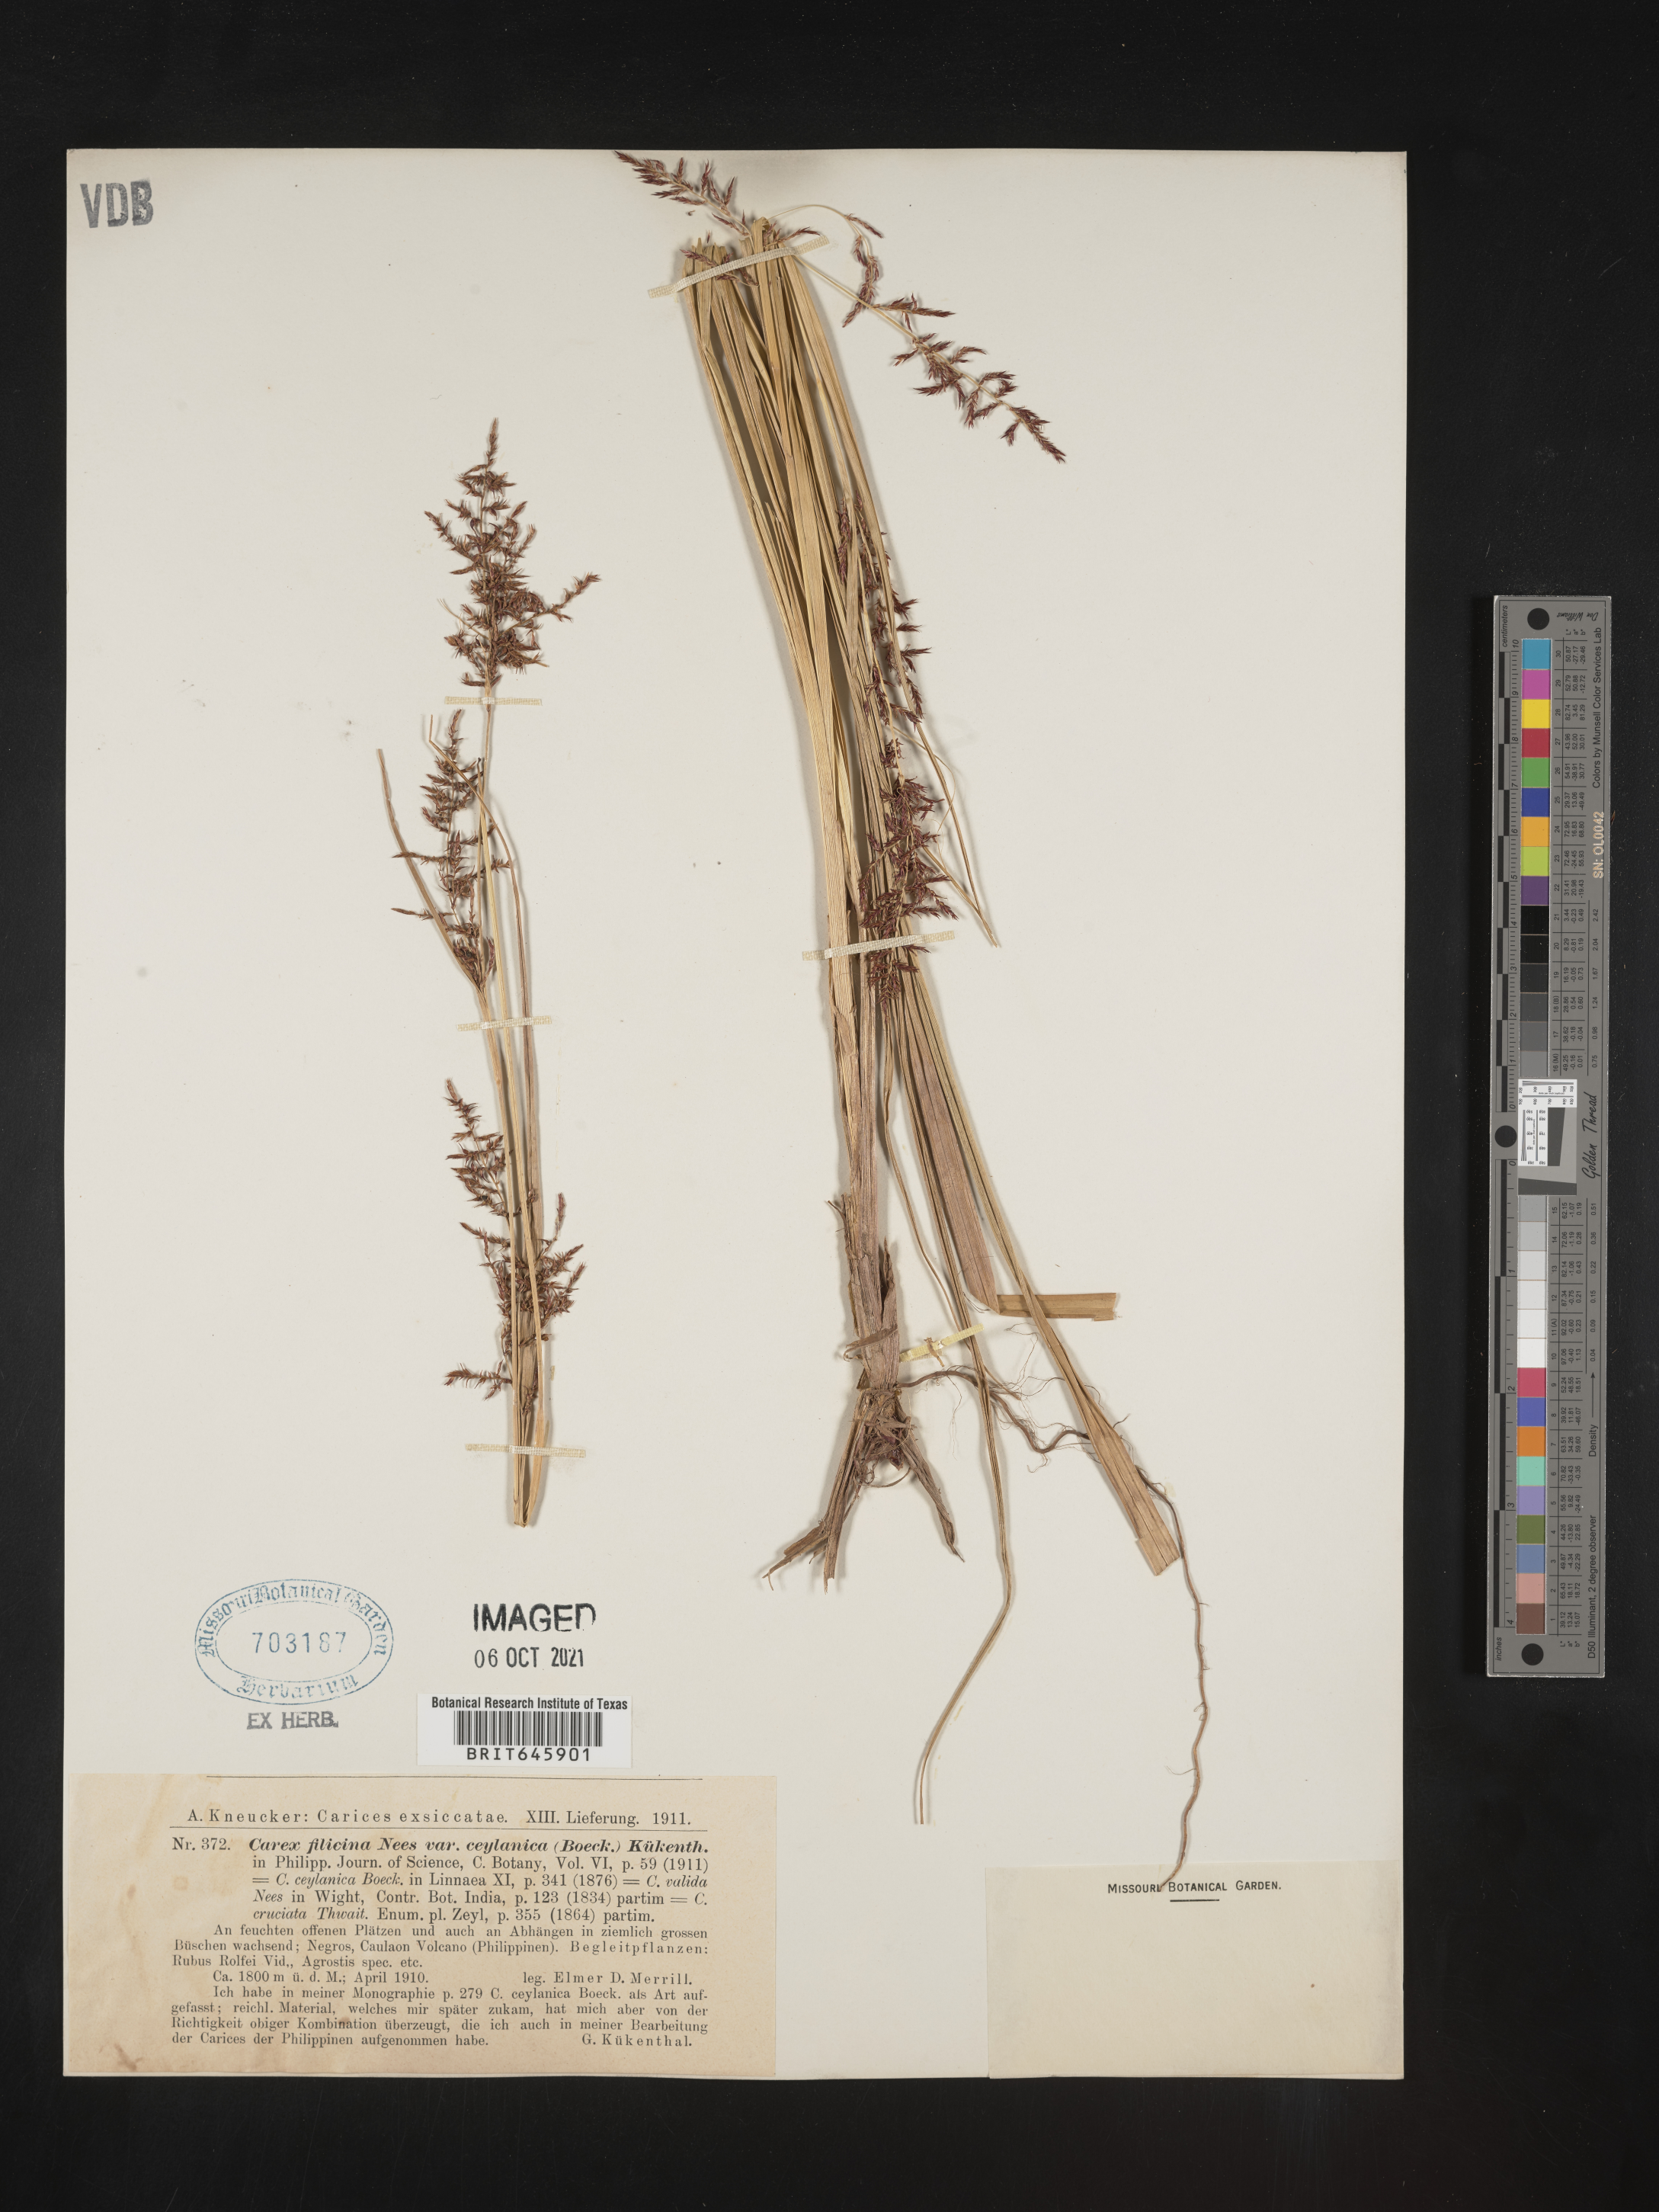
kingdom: Plantae
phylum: Tracheophyta
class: Liliopsida
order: Poales
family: Cyperaceae
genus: Carex
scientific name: Carex
